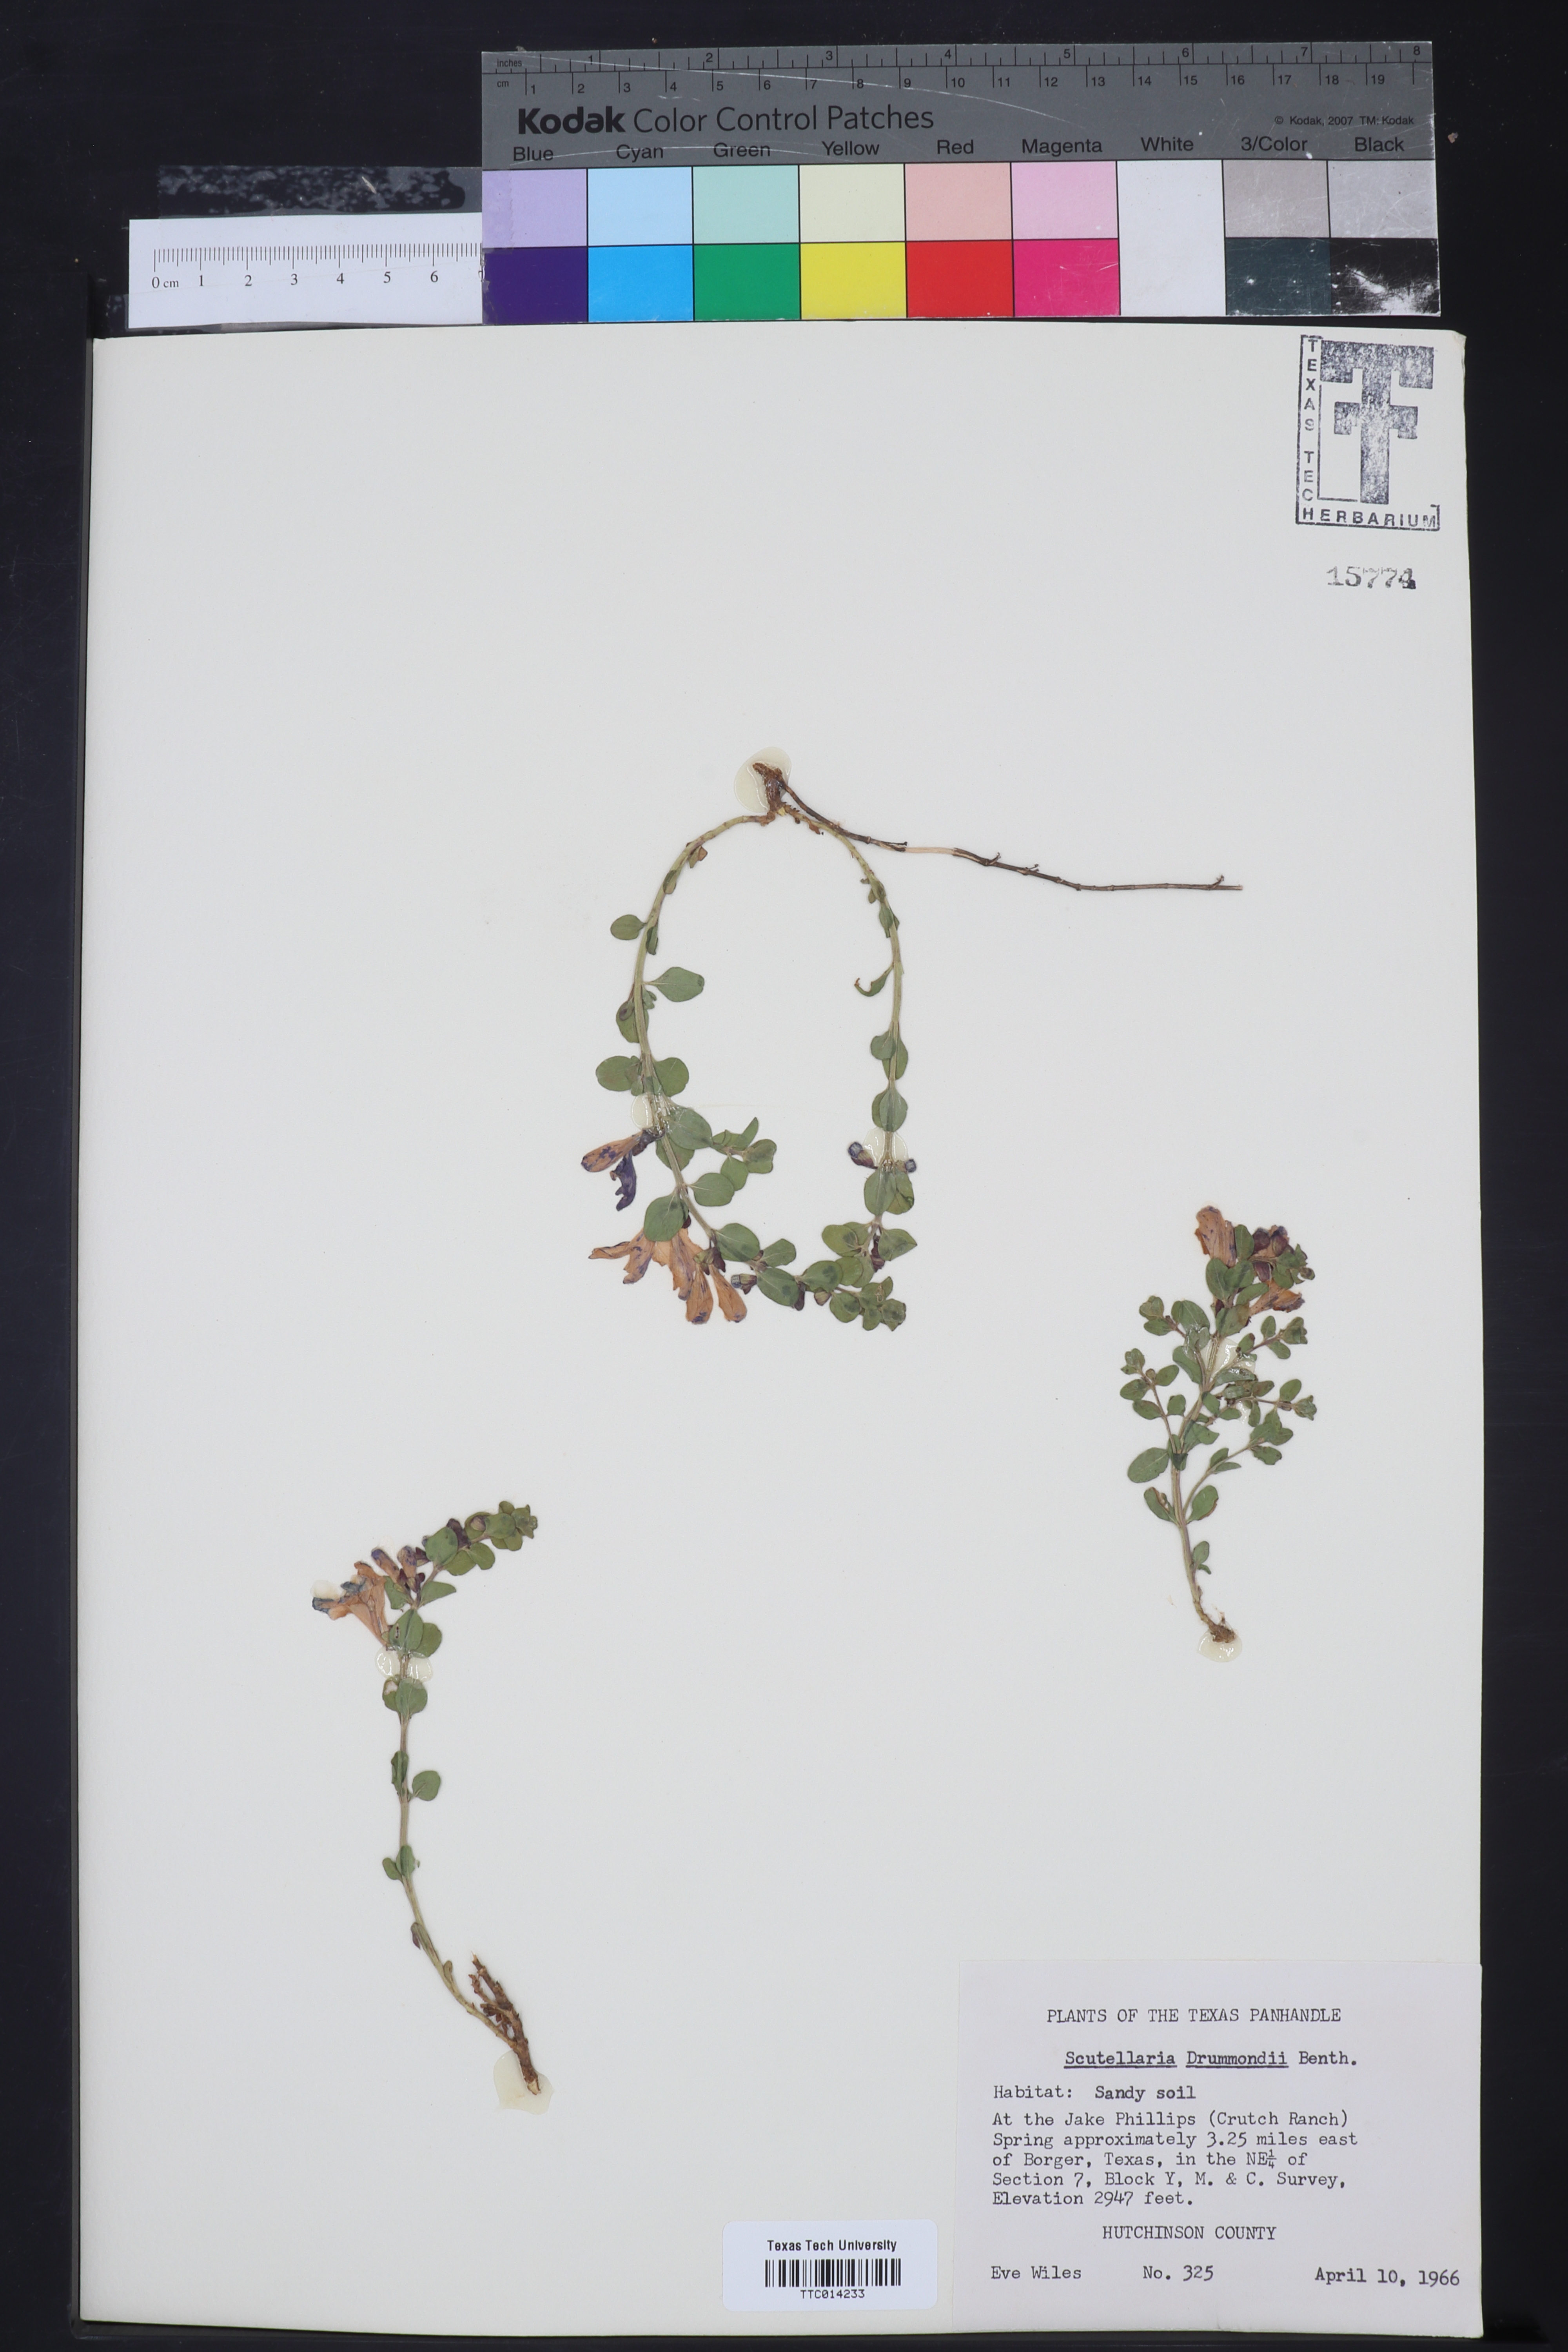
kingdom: Plantae
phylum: Tracheophyta
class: Magnoliopsida
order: Lamiales
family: Lamiaceae
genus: Scutellaria
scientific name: Scutellaria drummondii
